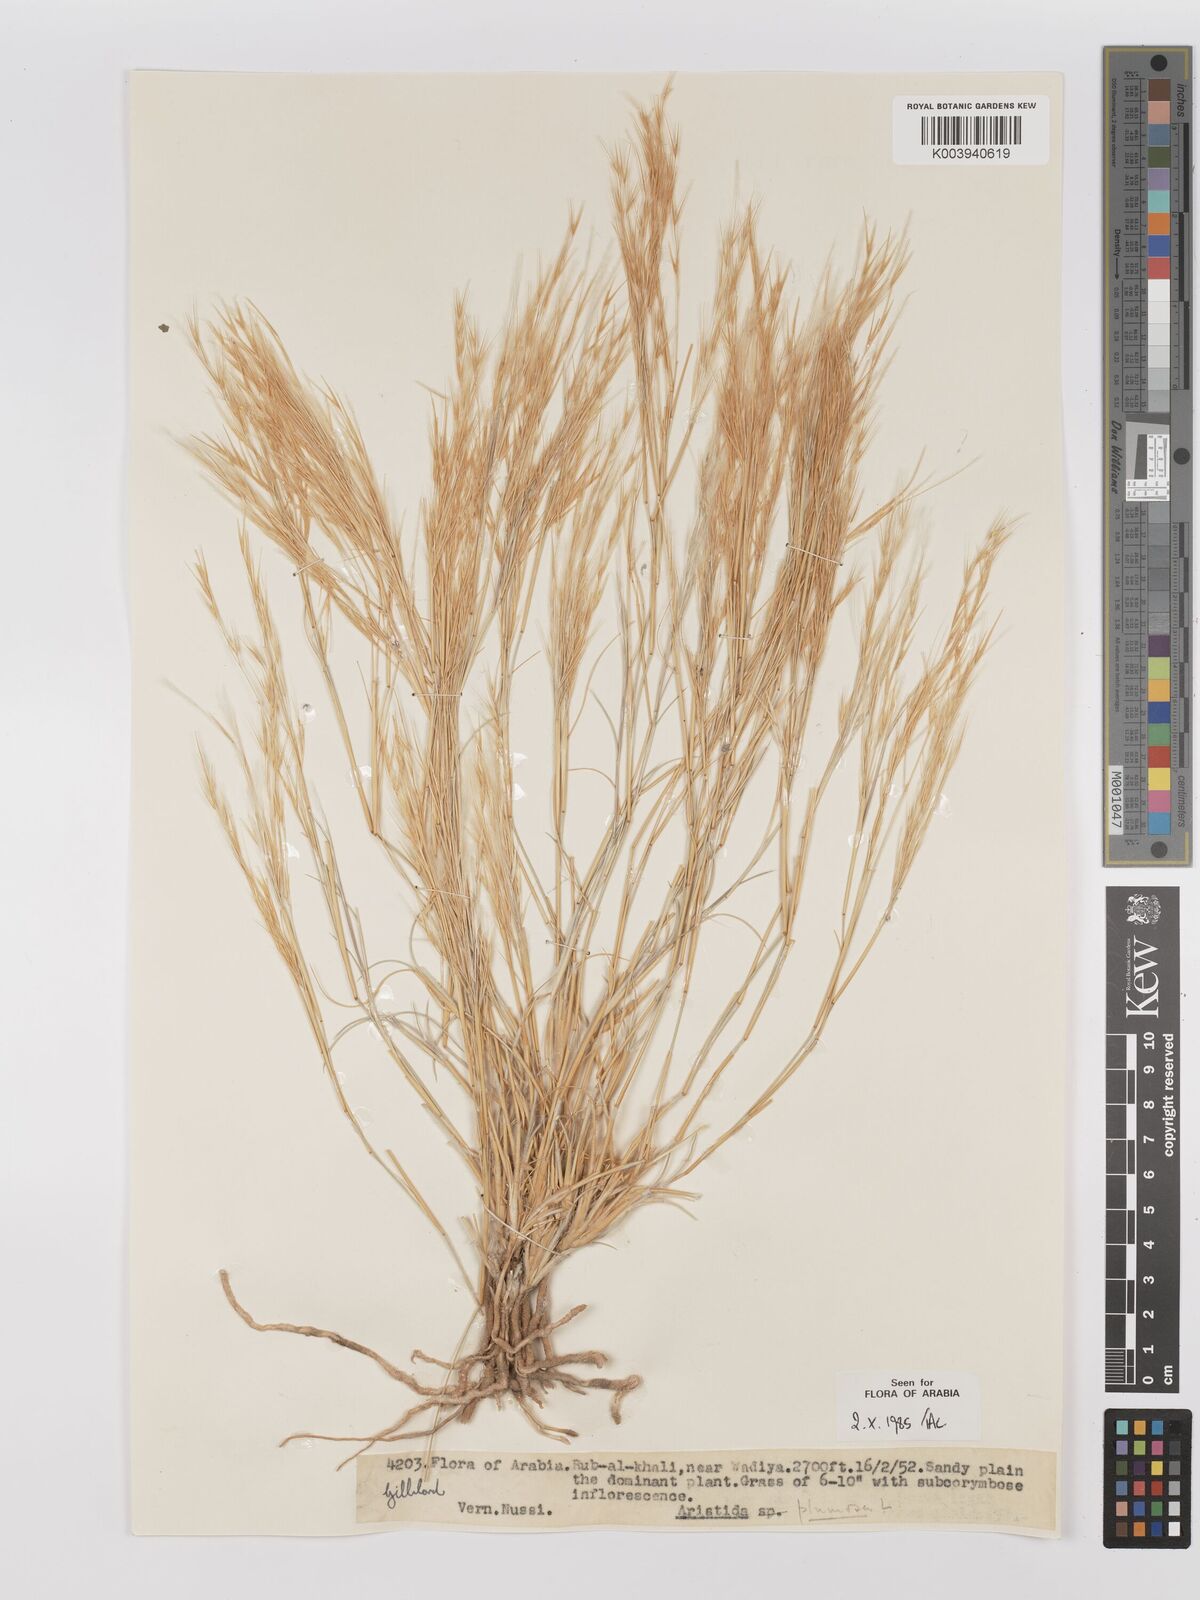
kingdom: Plantae
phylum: Tracheophyta
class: Liliopsida
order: Poales
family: Poaceae
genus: Stipagrostis
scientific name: Stipagrostis plumosa
